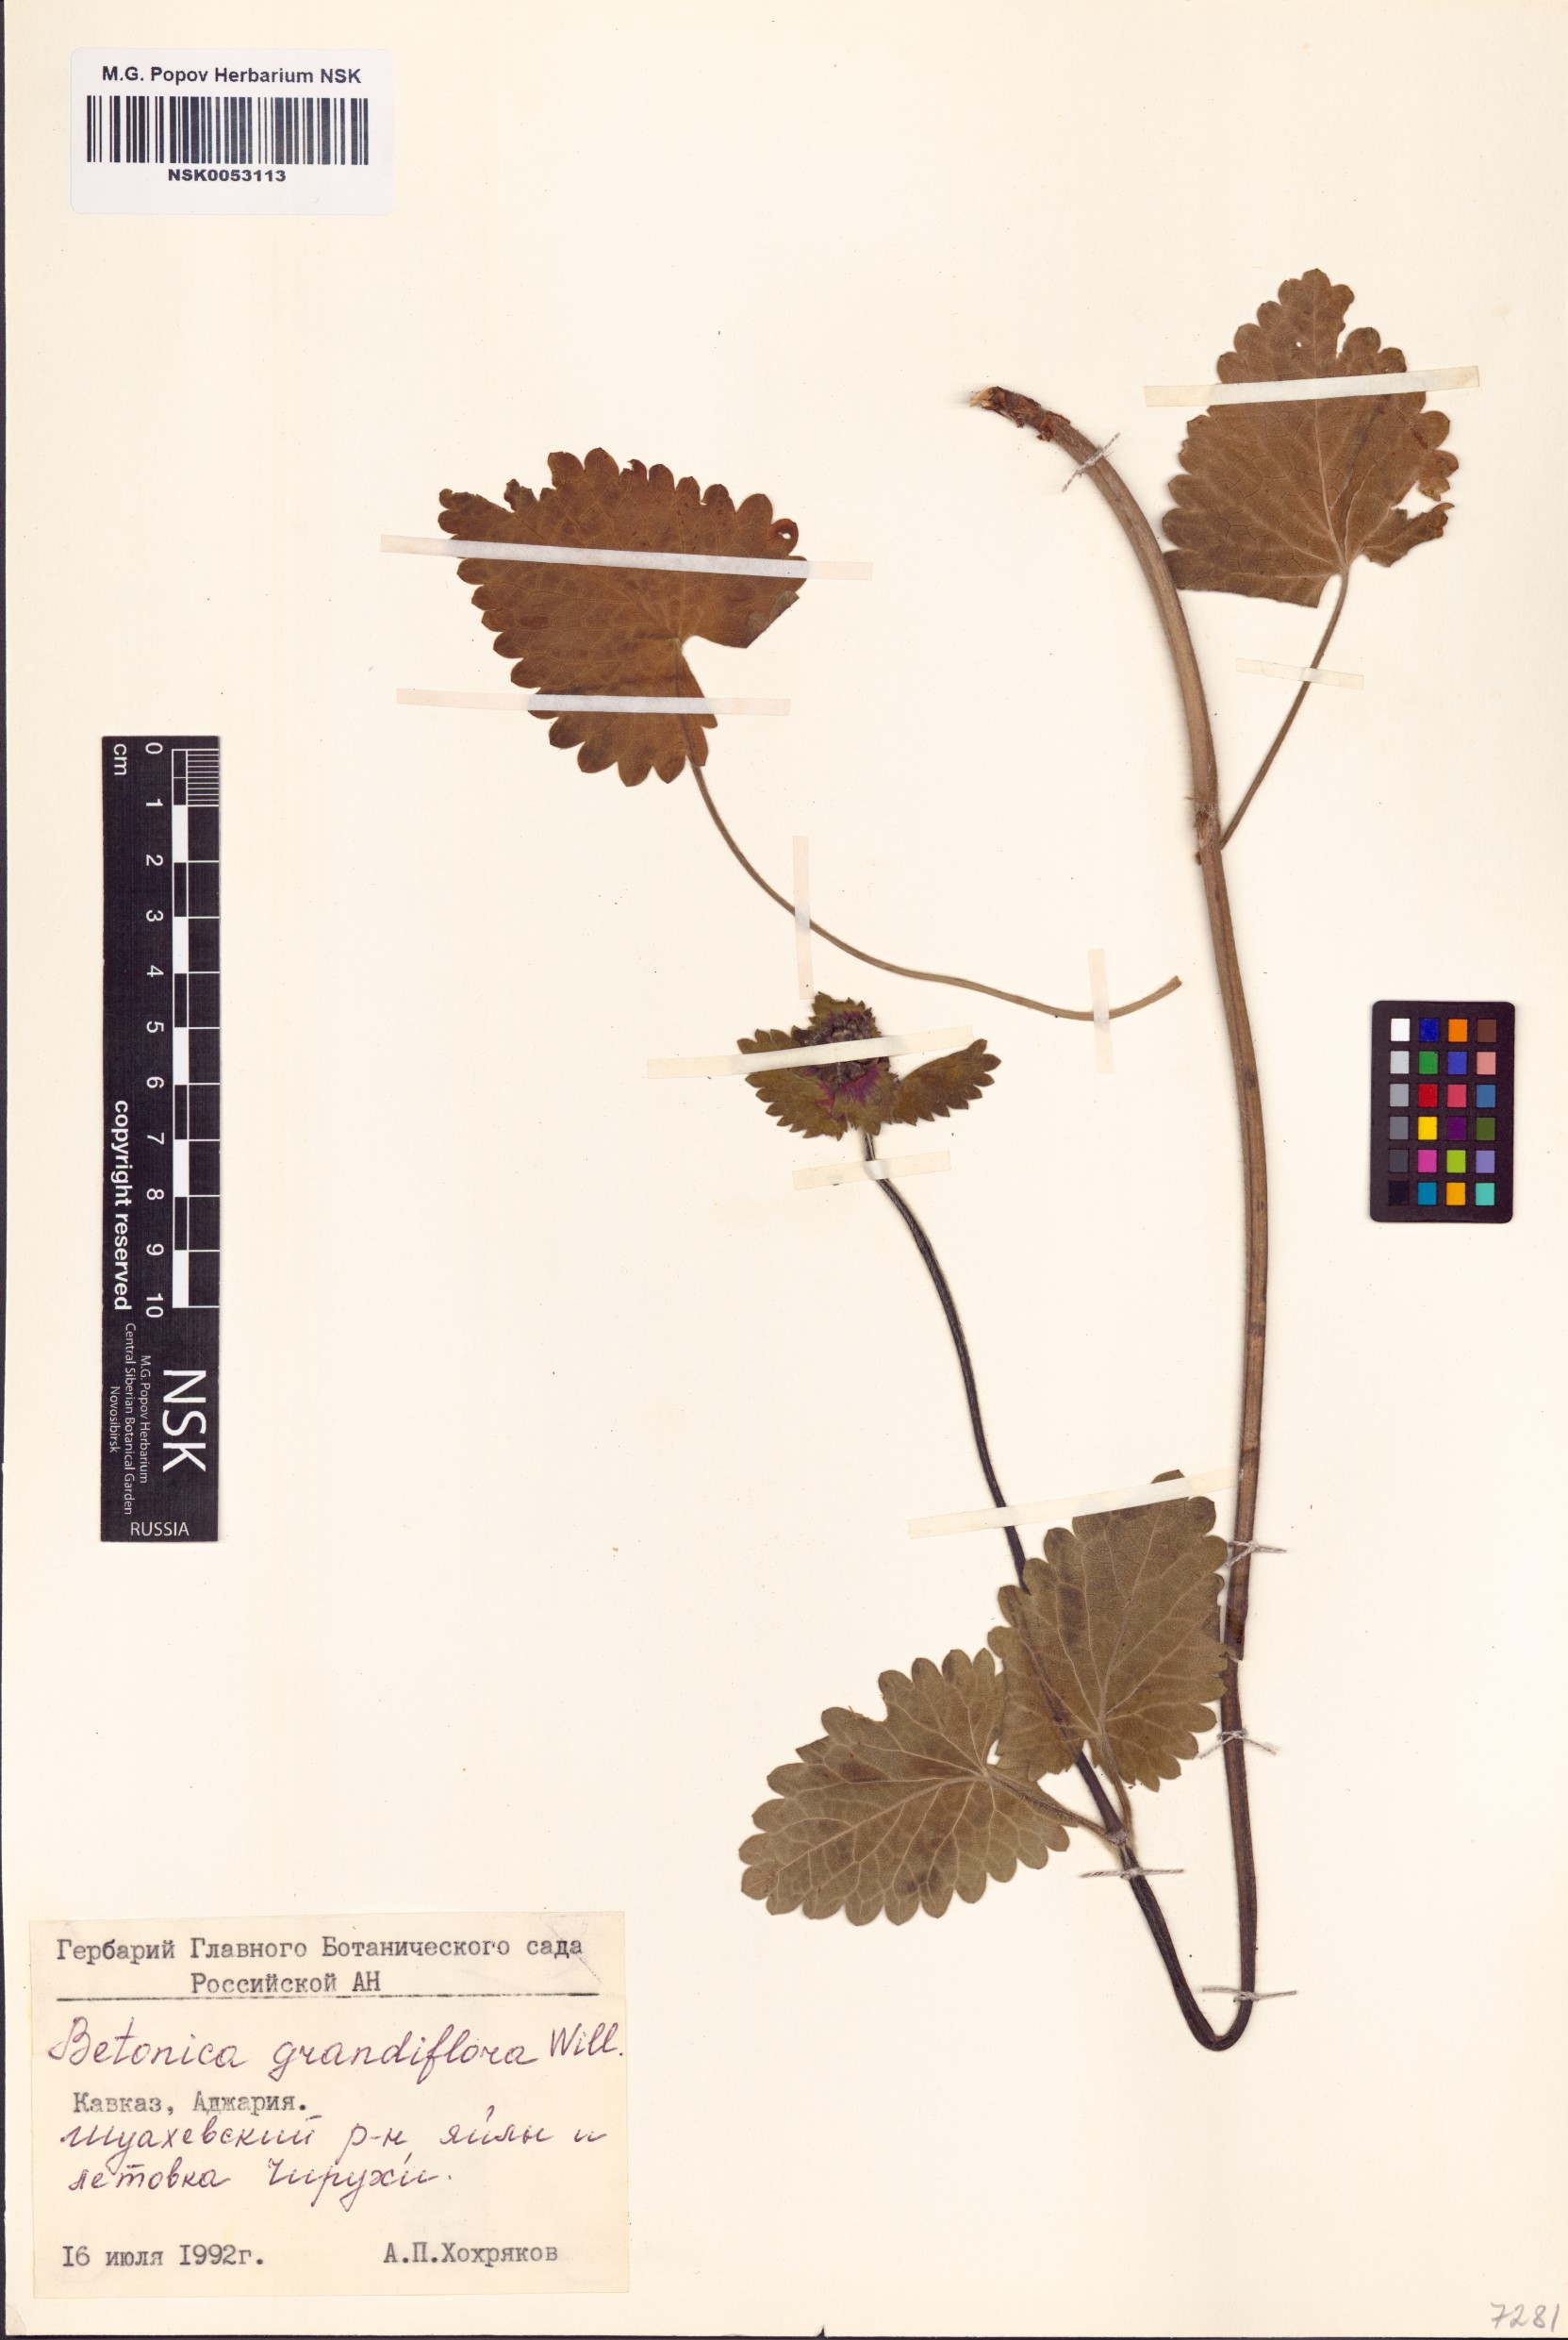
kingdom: Plantae
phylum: Tracheophyta
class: Magnoliopsida
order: Lamiales
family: Lamiaceae
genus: Betonica
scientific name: Betonica orientalis
